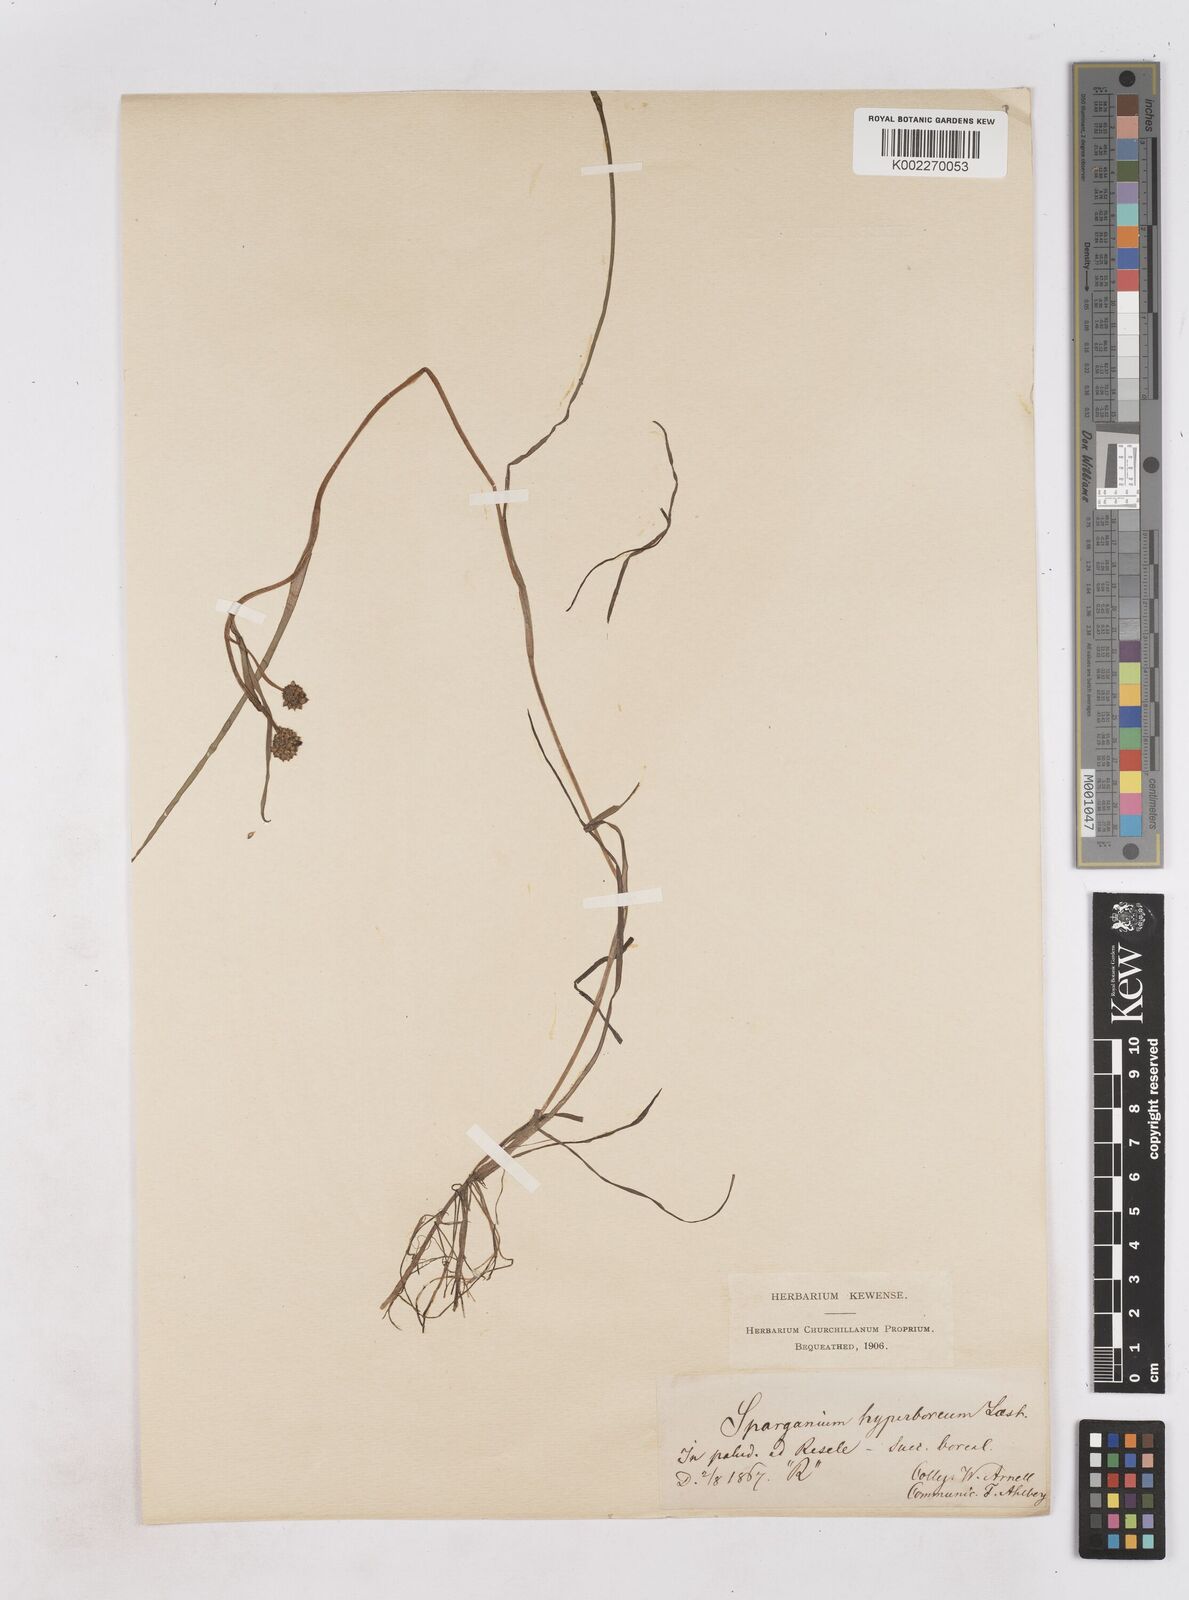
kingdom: Plantae
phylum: Tracheophyta
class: Liliopsida
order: Poales
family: Typhaceae
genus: Sparganium
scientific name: Sparganium hyperboreum
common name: Arctic burreed
